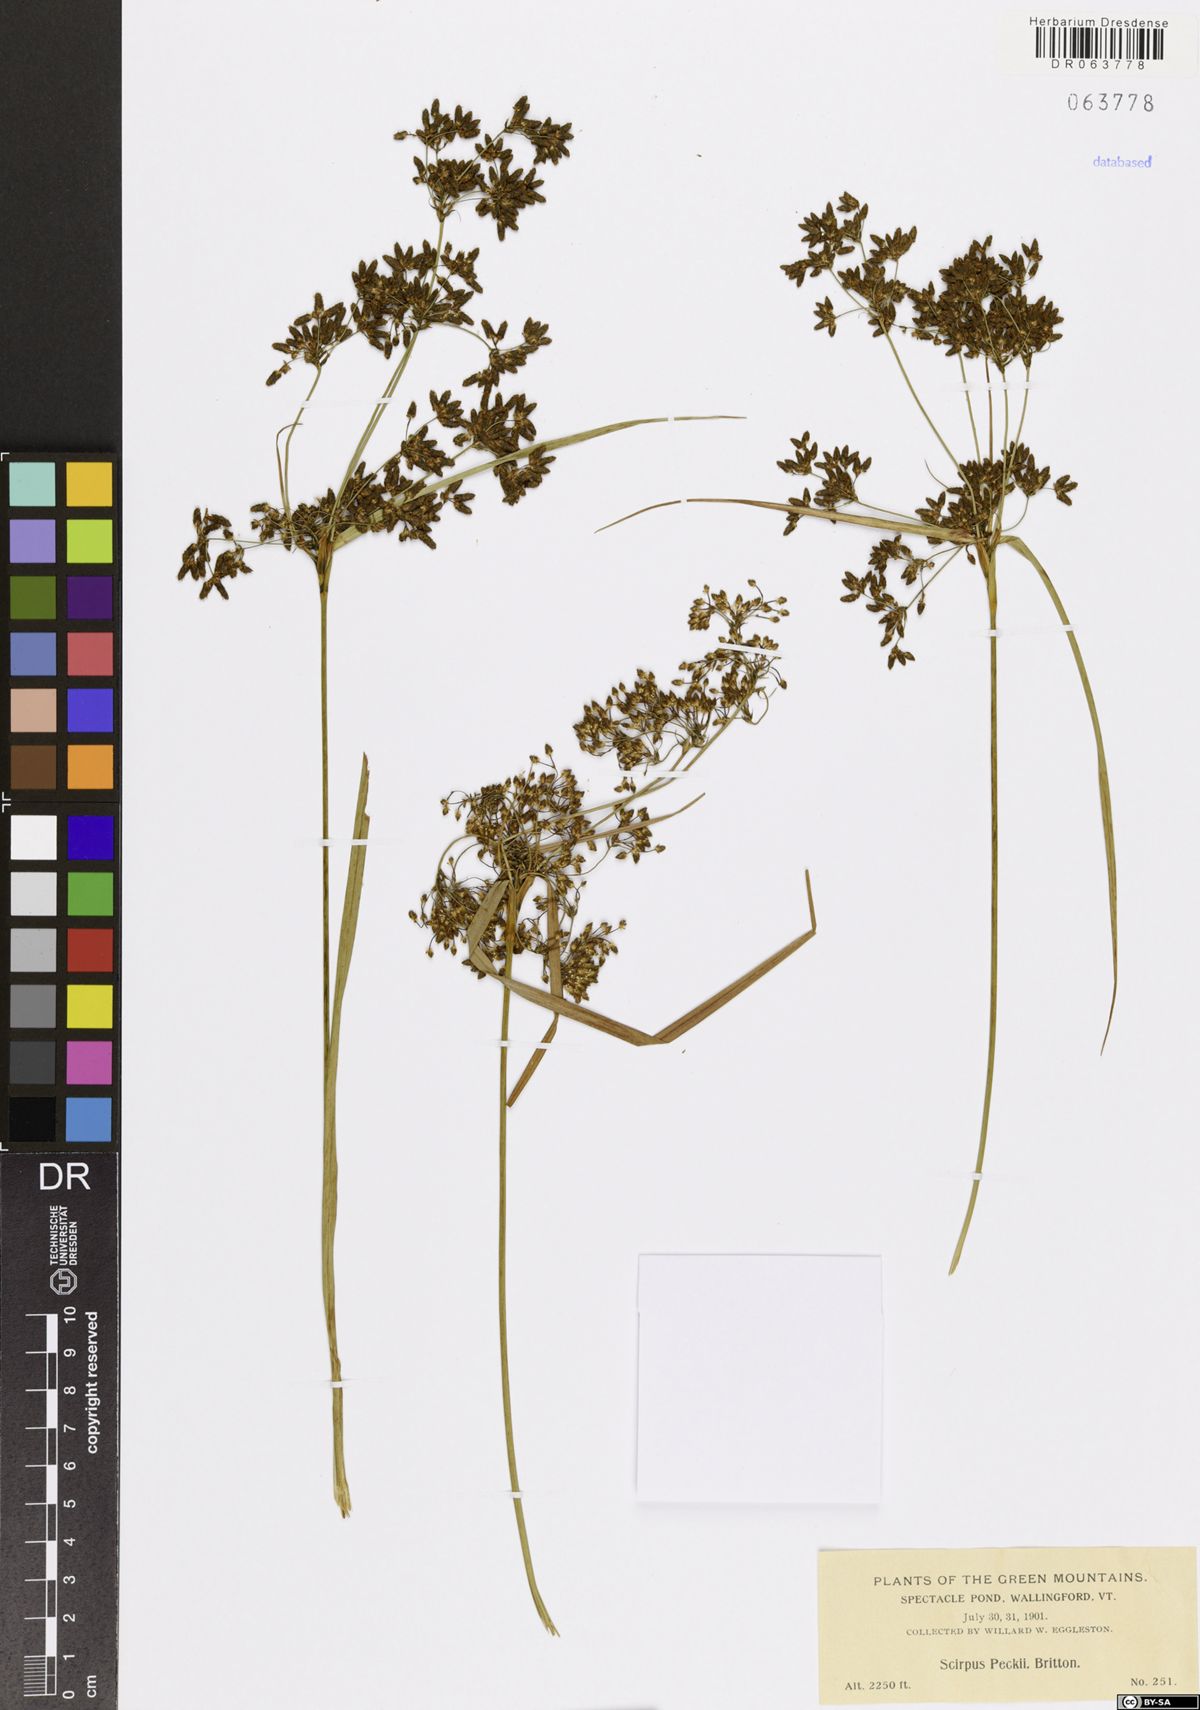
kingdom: Plantae
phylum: Tracheophyta
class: Liliopsida
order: Poales
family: Cyperaceae
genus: Scirpus
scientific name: Scirpus peckii
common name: Peck's bulrush
